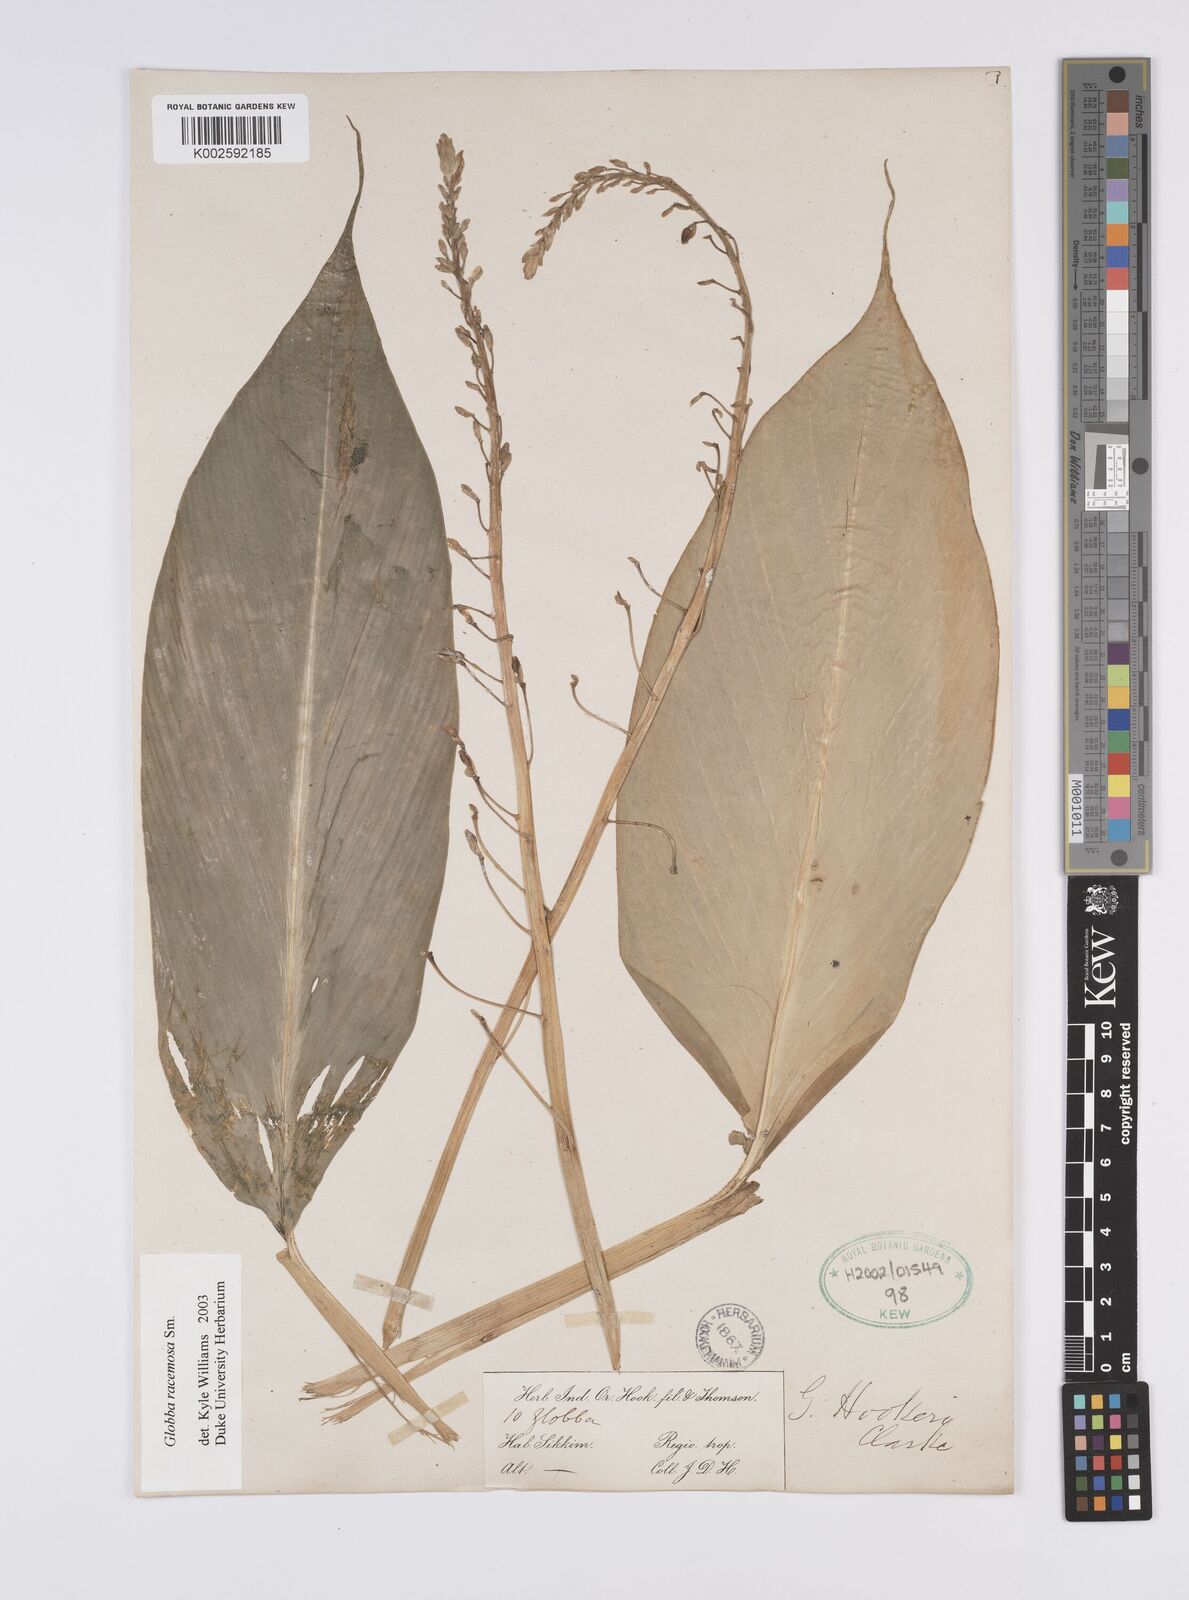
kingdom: Plantae
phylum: Tracheophyta
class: Liliopsida
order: Zingiberales
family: Zingiberaceae
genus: Globba
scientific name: Globba racemosa
